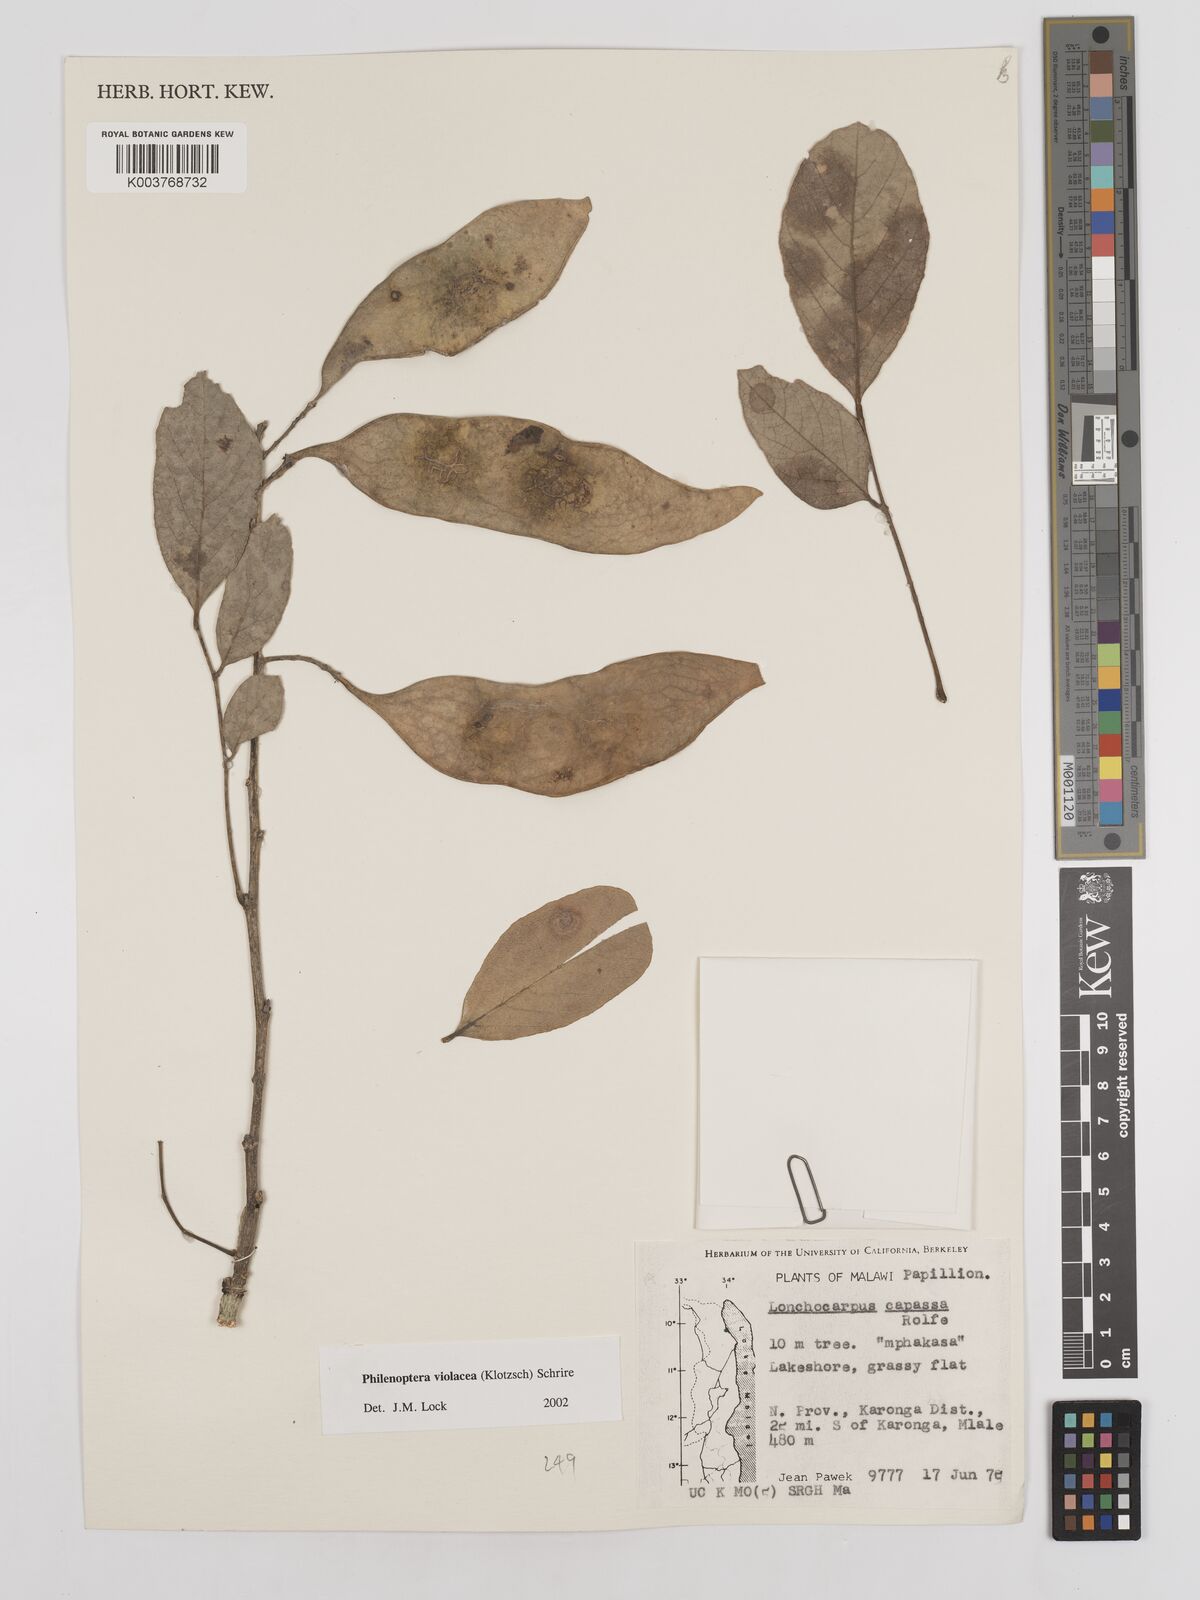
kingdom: Plantae
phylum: Tracheophyta
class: Magnoliopsida
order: Fabales
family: Fabaceae
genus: Philenoptera
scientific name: Philenoptera violacea
